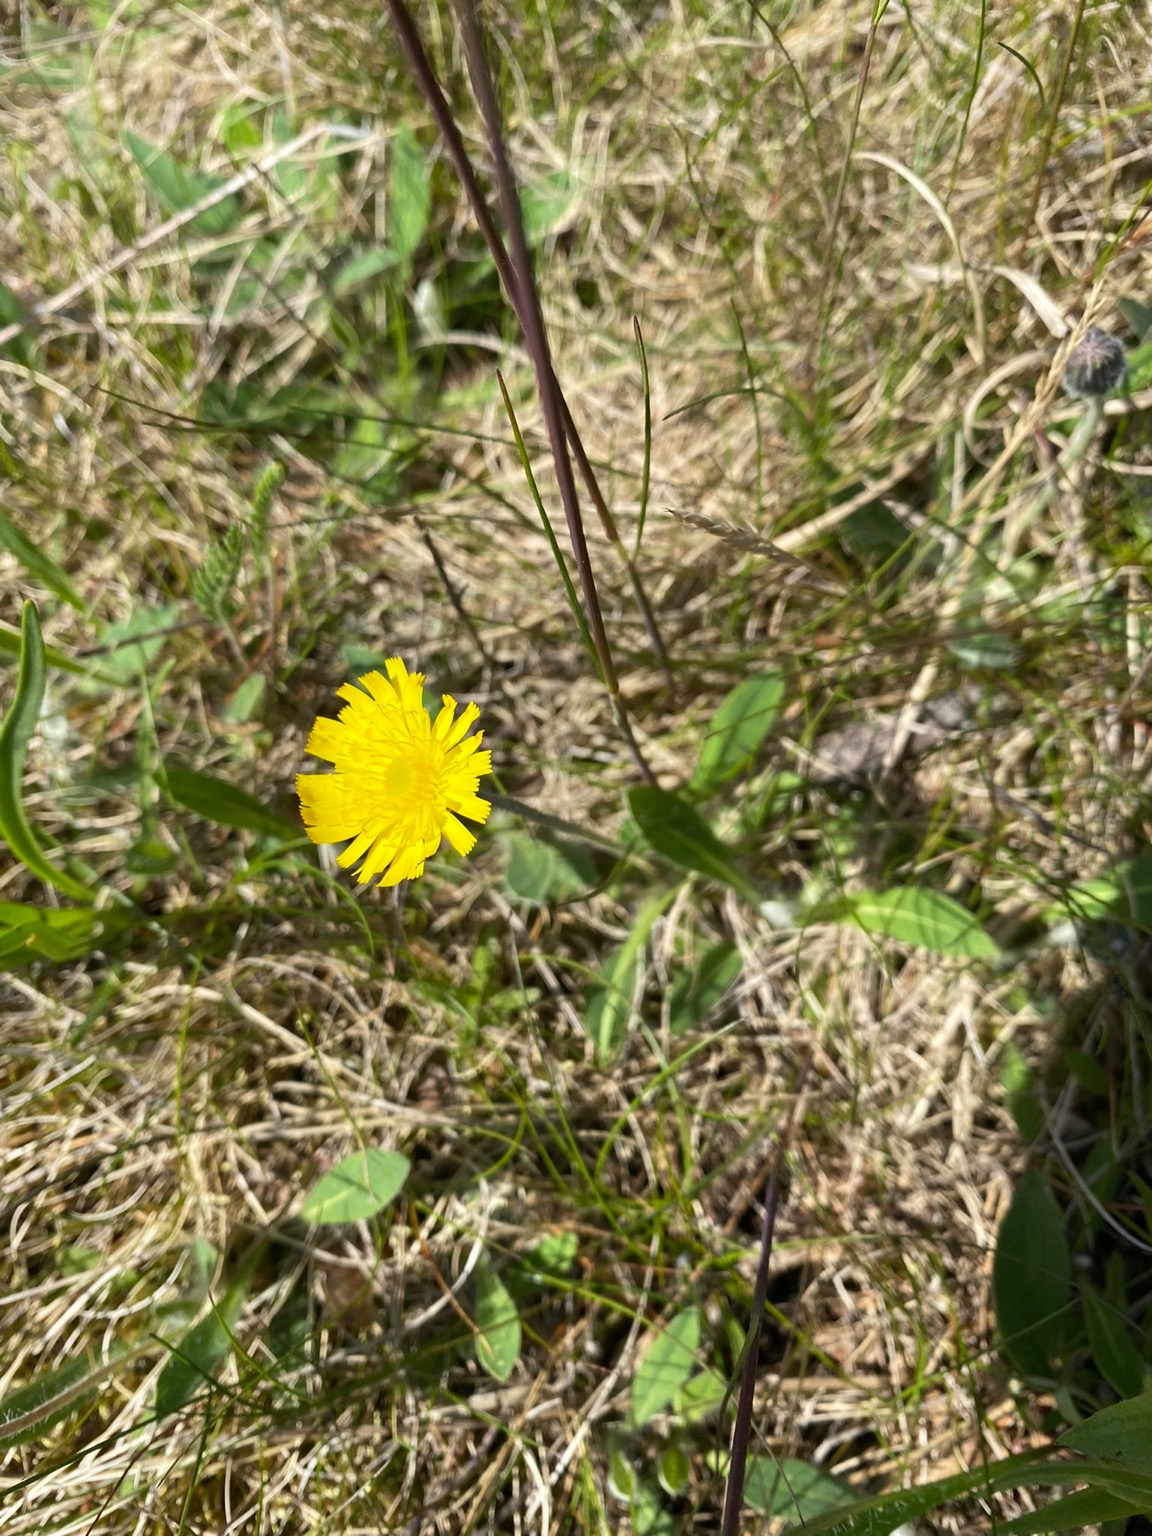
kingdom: Plantae
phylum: Tracheophyta
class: Magnoliopsida
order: Asterales
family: Asteraceae
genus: Pilosella
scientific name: Pilosella officinarum
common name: Håret høgeurt
